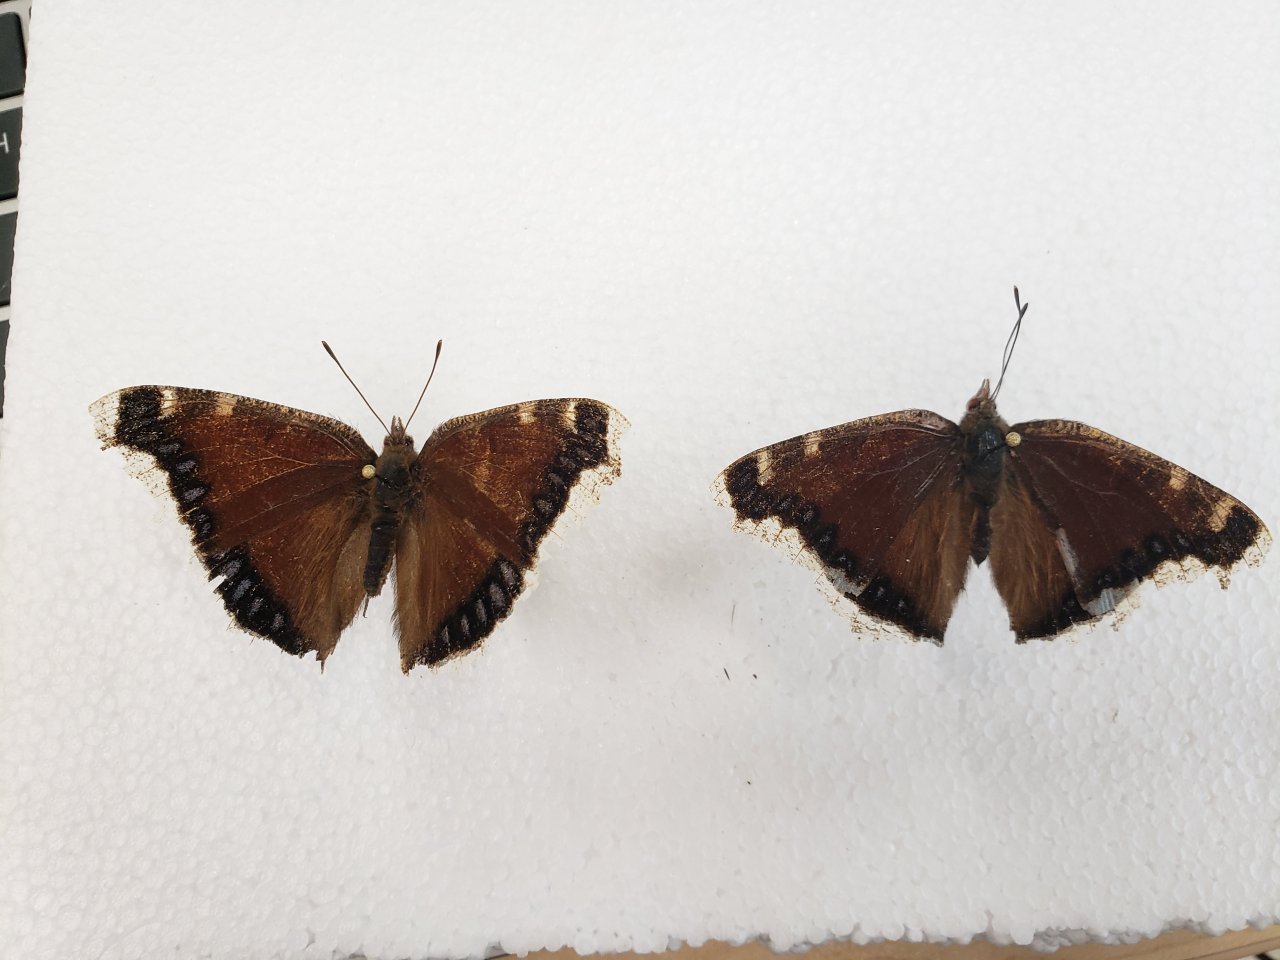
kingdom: Animalia
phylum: Arthropoda
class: Insecta
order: Lepidoptera
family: Nymphalidae
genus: Nymphalis
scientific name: Nymphalis antiopa
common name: Mourning Cloak
